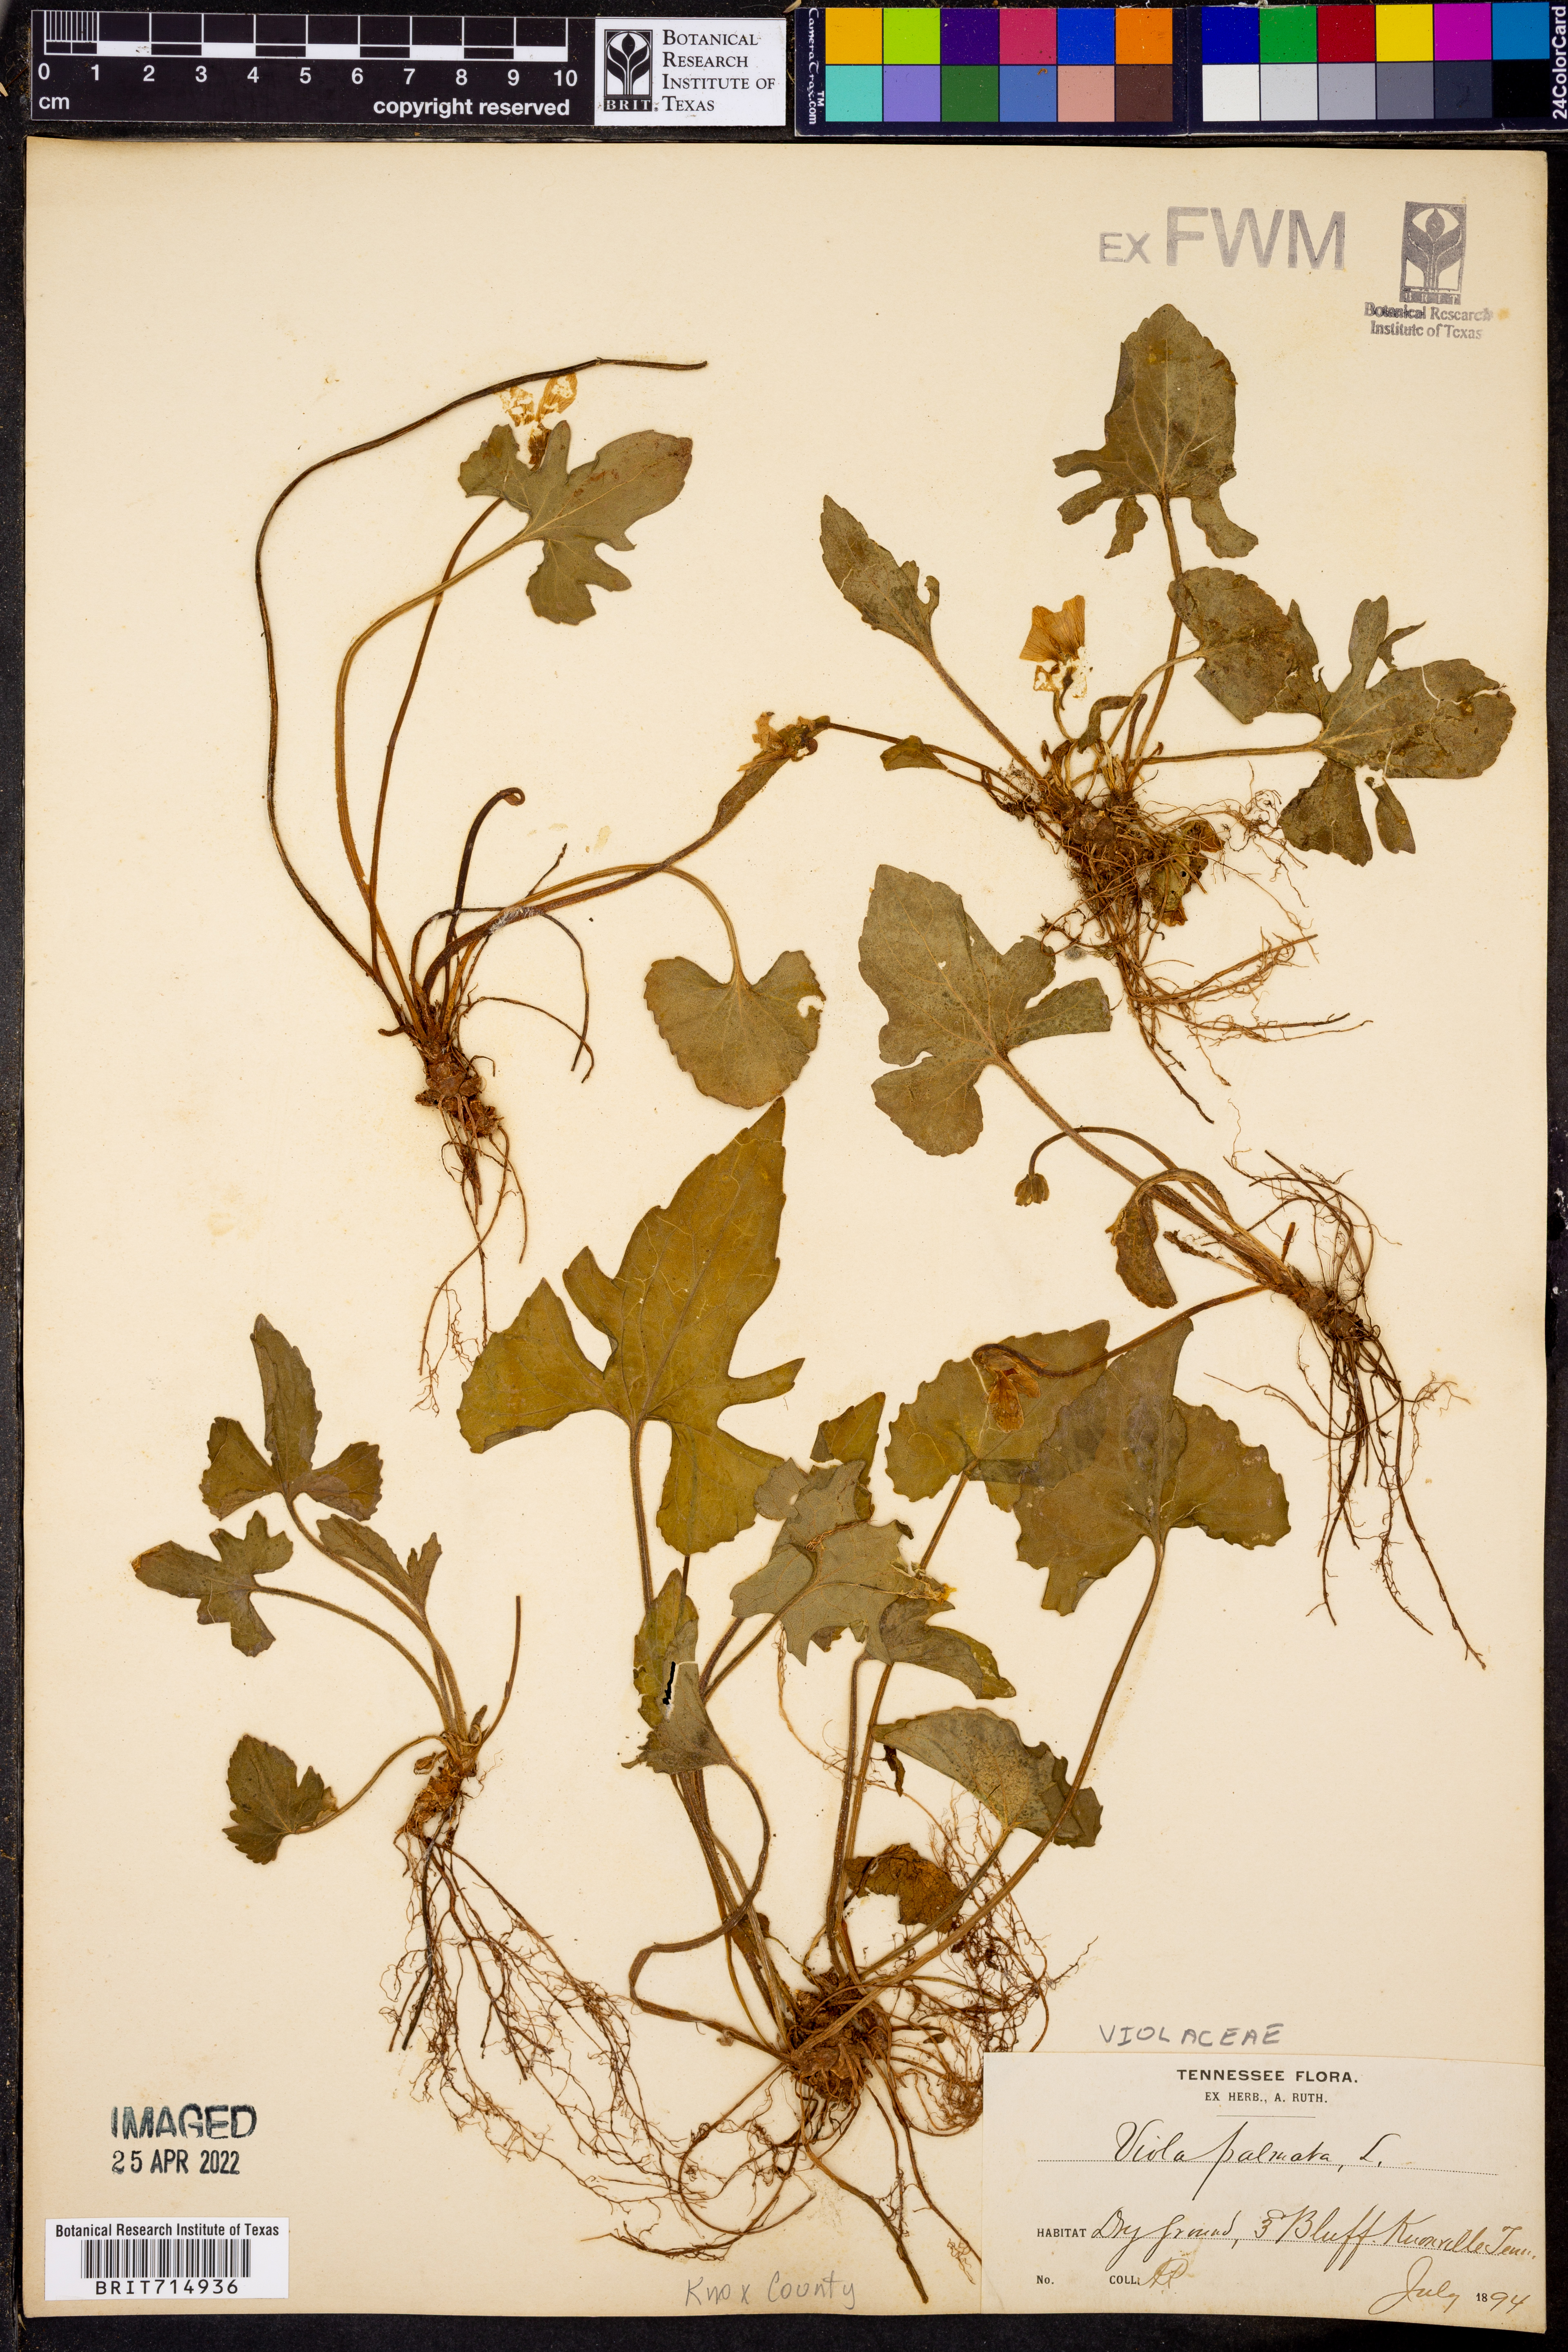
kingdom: Plantae
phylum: Tracheophyta
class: Magnoliopsida
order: Malpighiales
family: Violaceae
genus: Viola
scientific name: Viola palmata
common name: Early blue violet
